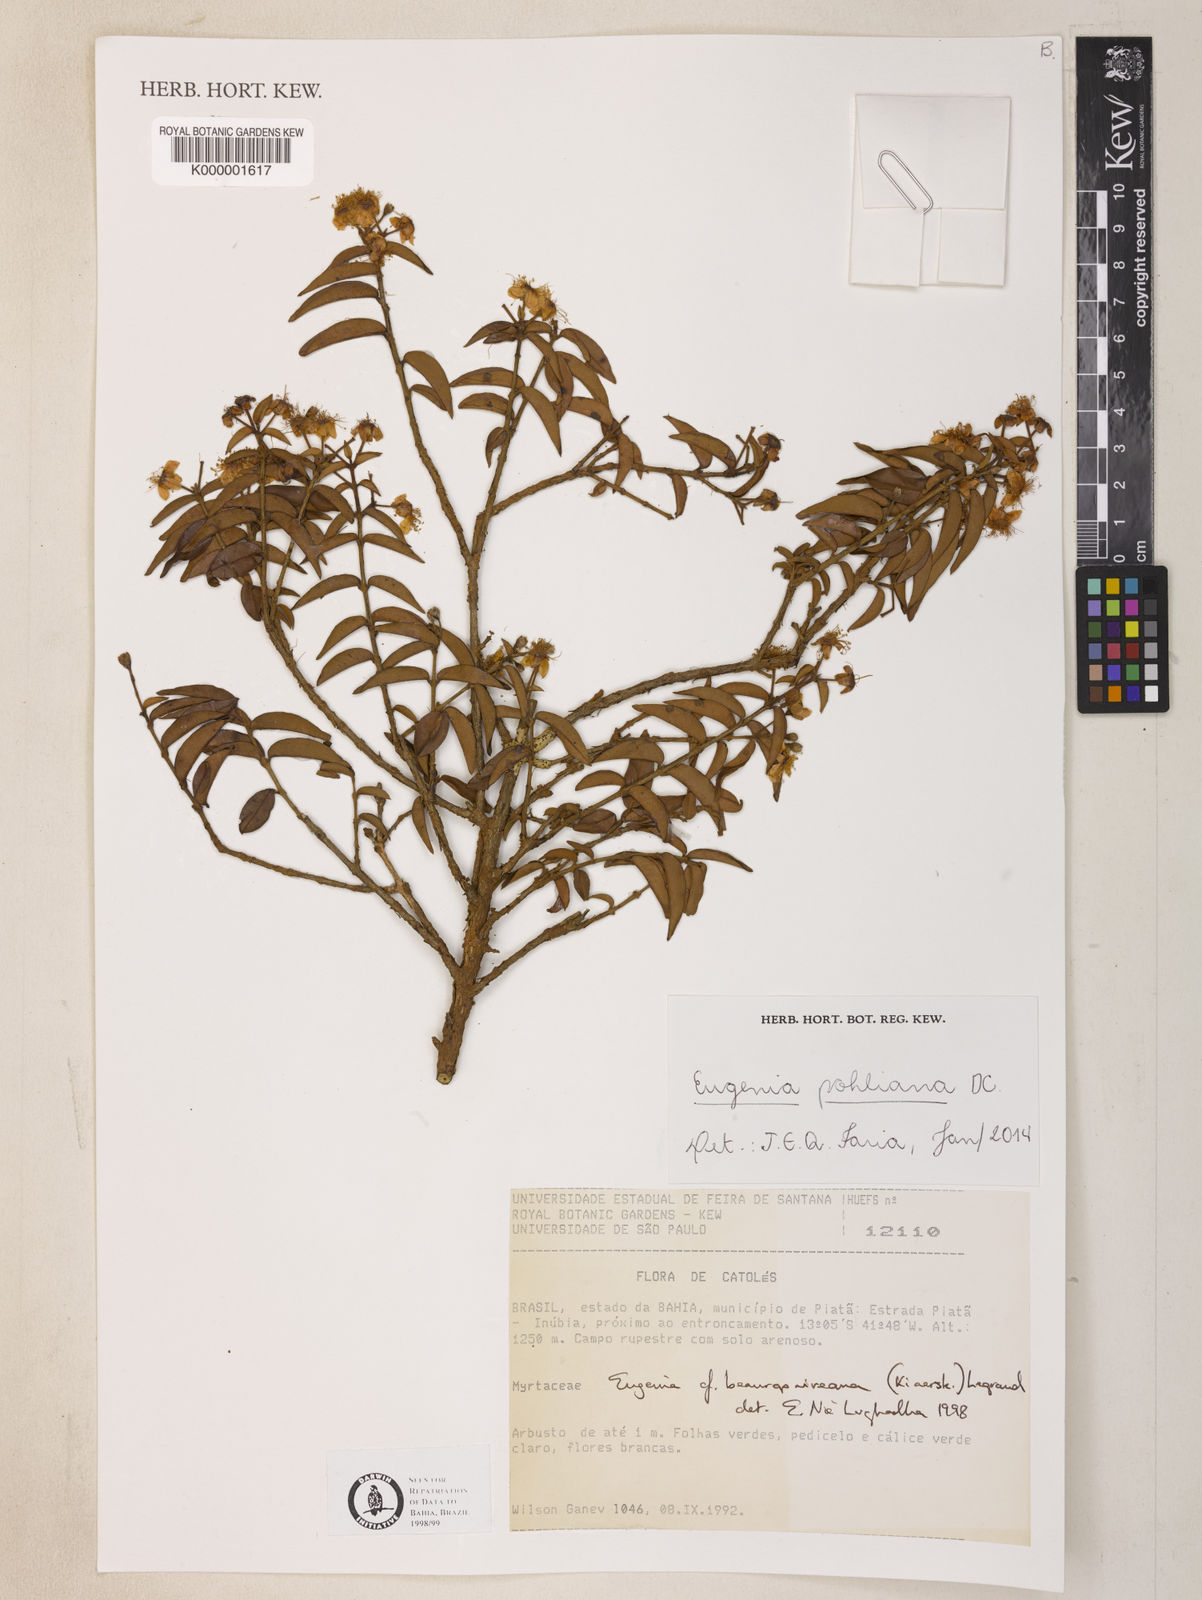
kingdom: Plantae
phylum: Tracheophyta
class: Magnoliopsida
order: Myrtales
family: Myrtaceae
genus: Eugenia
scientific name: Eugenia pohliana
